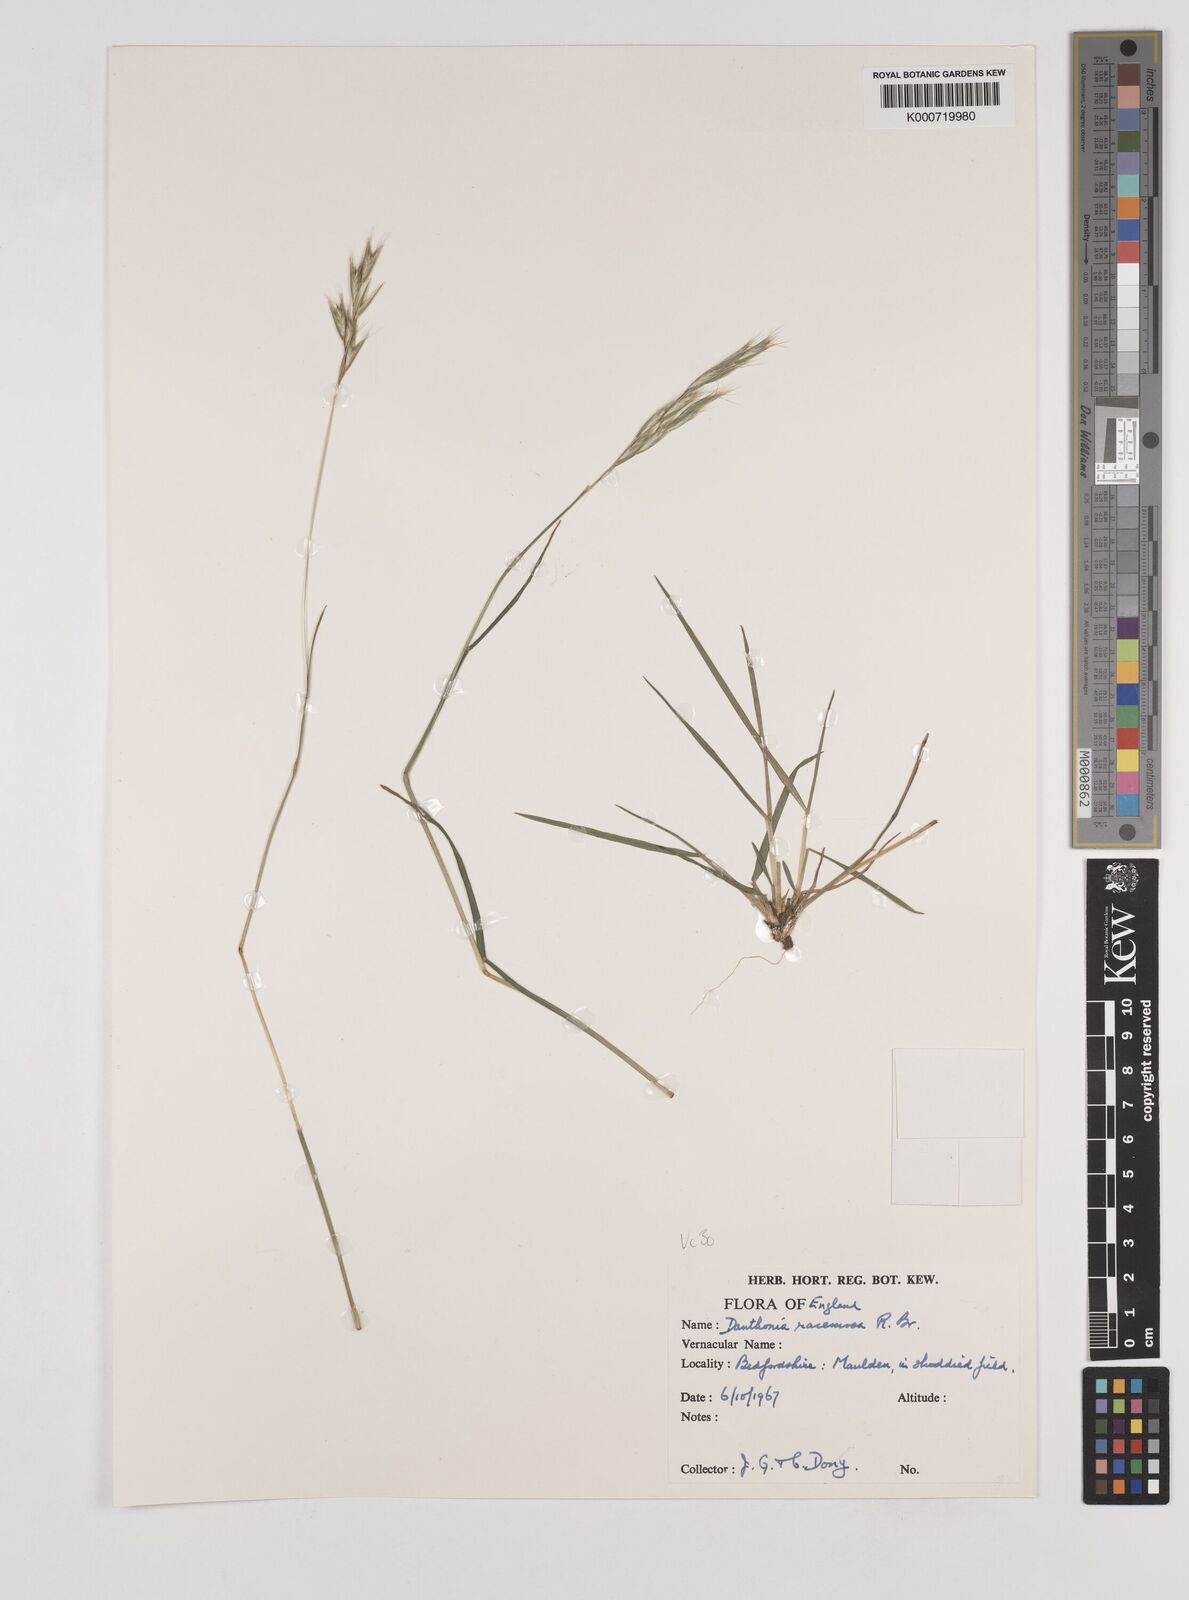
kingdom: Plantae
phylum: Tracheophyta
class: Liliopsida
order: Poales
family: Poaceae
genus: Rytidosperma
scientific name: Rytidosperma racemosum
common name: Wallaby-grass
